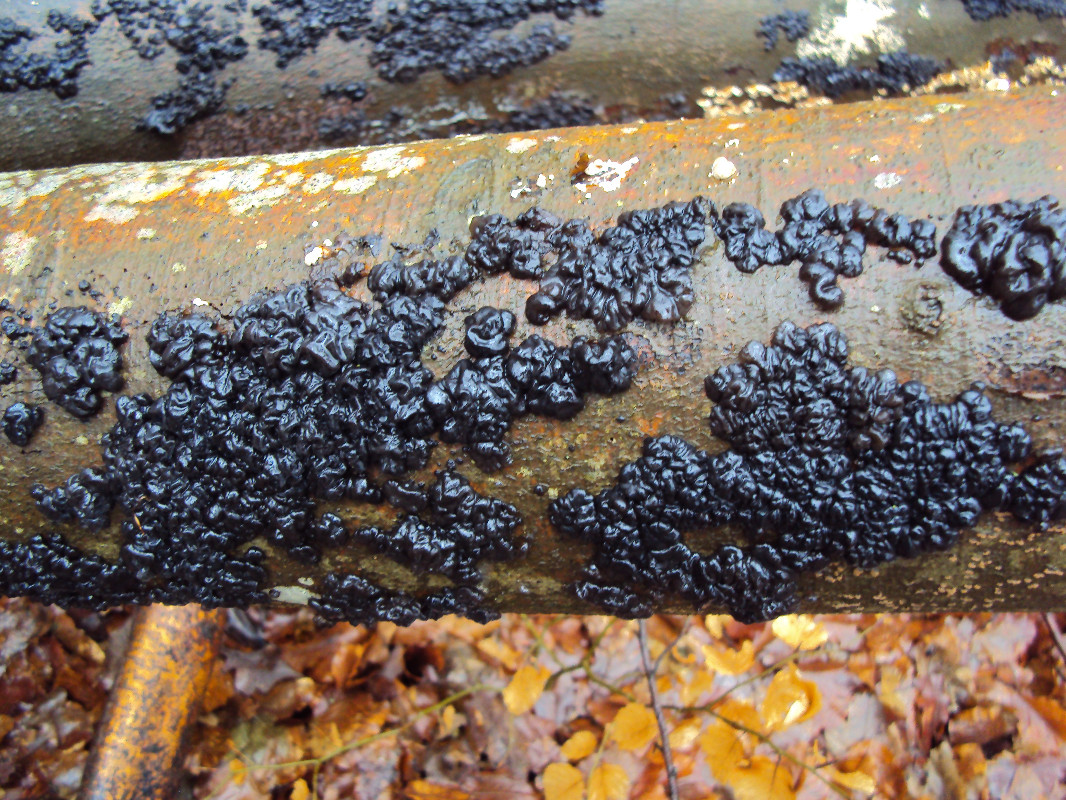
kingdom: Fungi
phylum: Basidiomycota
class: Agaricomycetes
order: Auriculariales
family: Auriculariaceae
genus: Exidia
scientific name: Exidia nigricans
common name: almindelig bævretop
